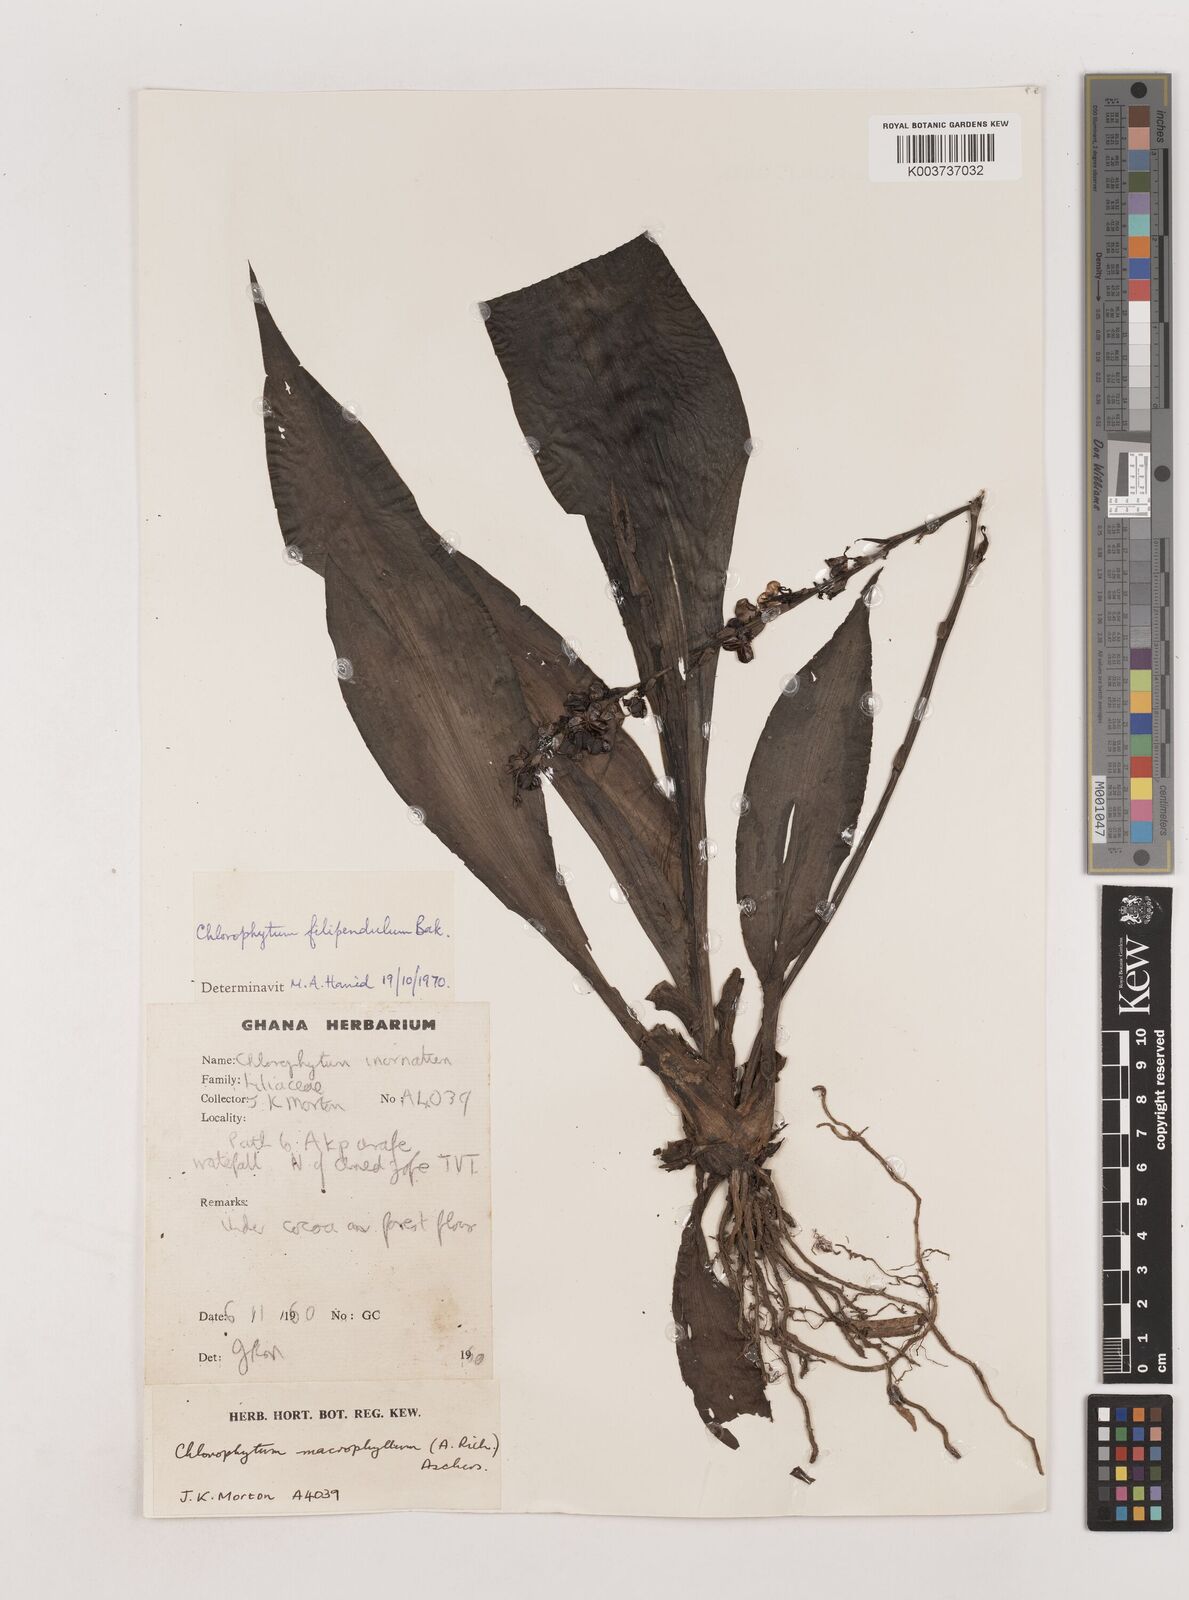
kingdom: Plantae
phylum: Tracheophyta
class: Liliopsida
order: Asparagales
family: Asparagaceae
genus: Chlorophytum
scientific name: Chlorophytum heynei
